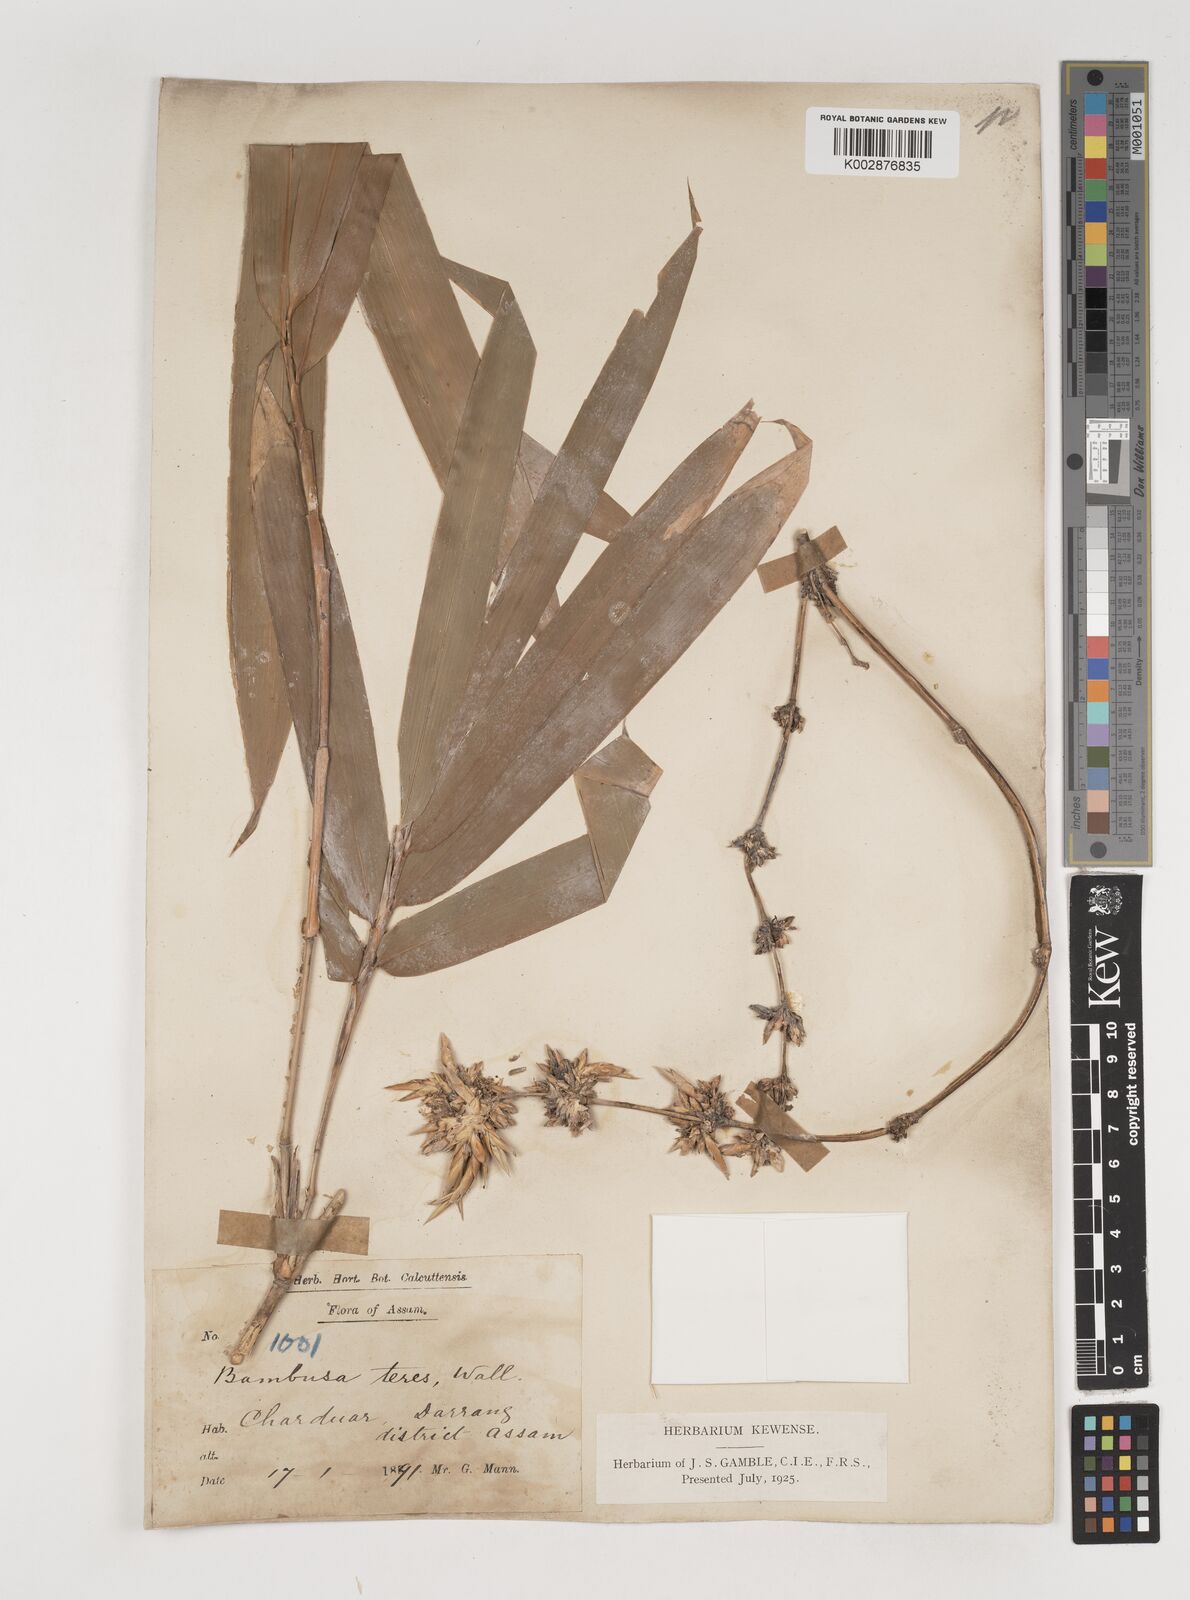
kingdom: Plantae
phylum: Tracheophyta
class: Liliopsida
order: Poales
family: Poaceae
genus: Bambusa
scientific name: Bambusa teres
